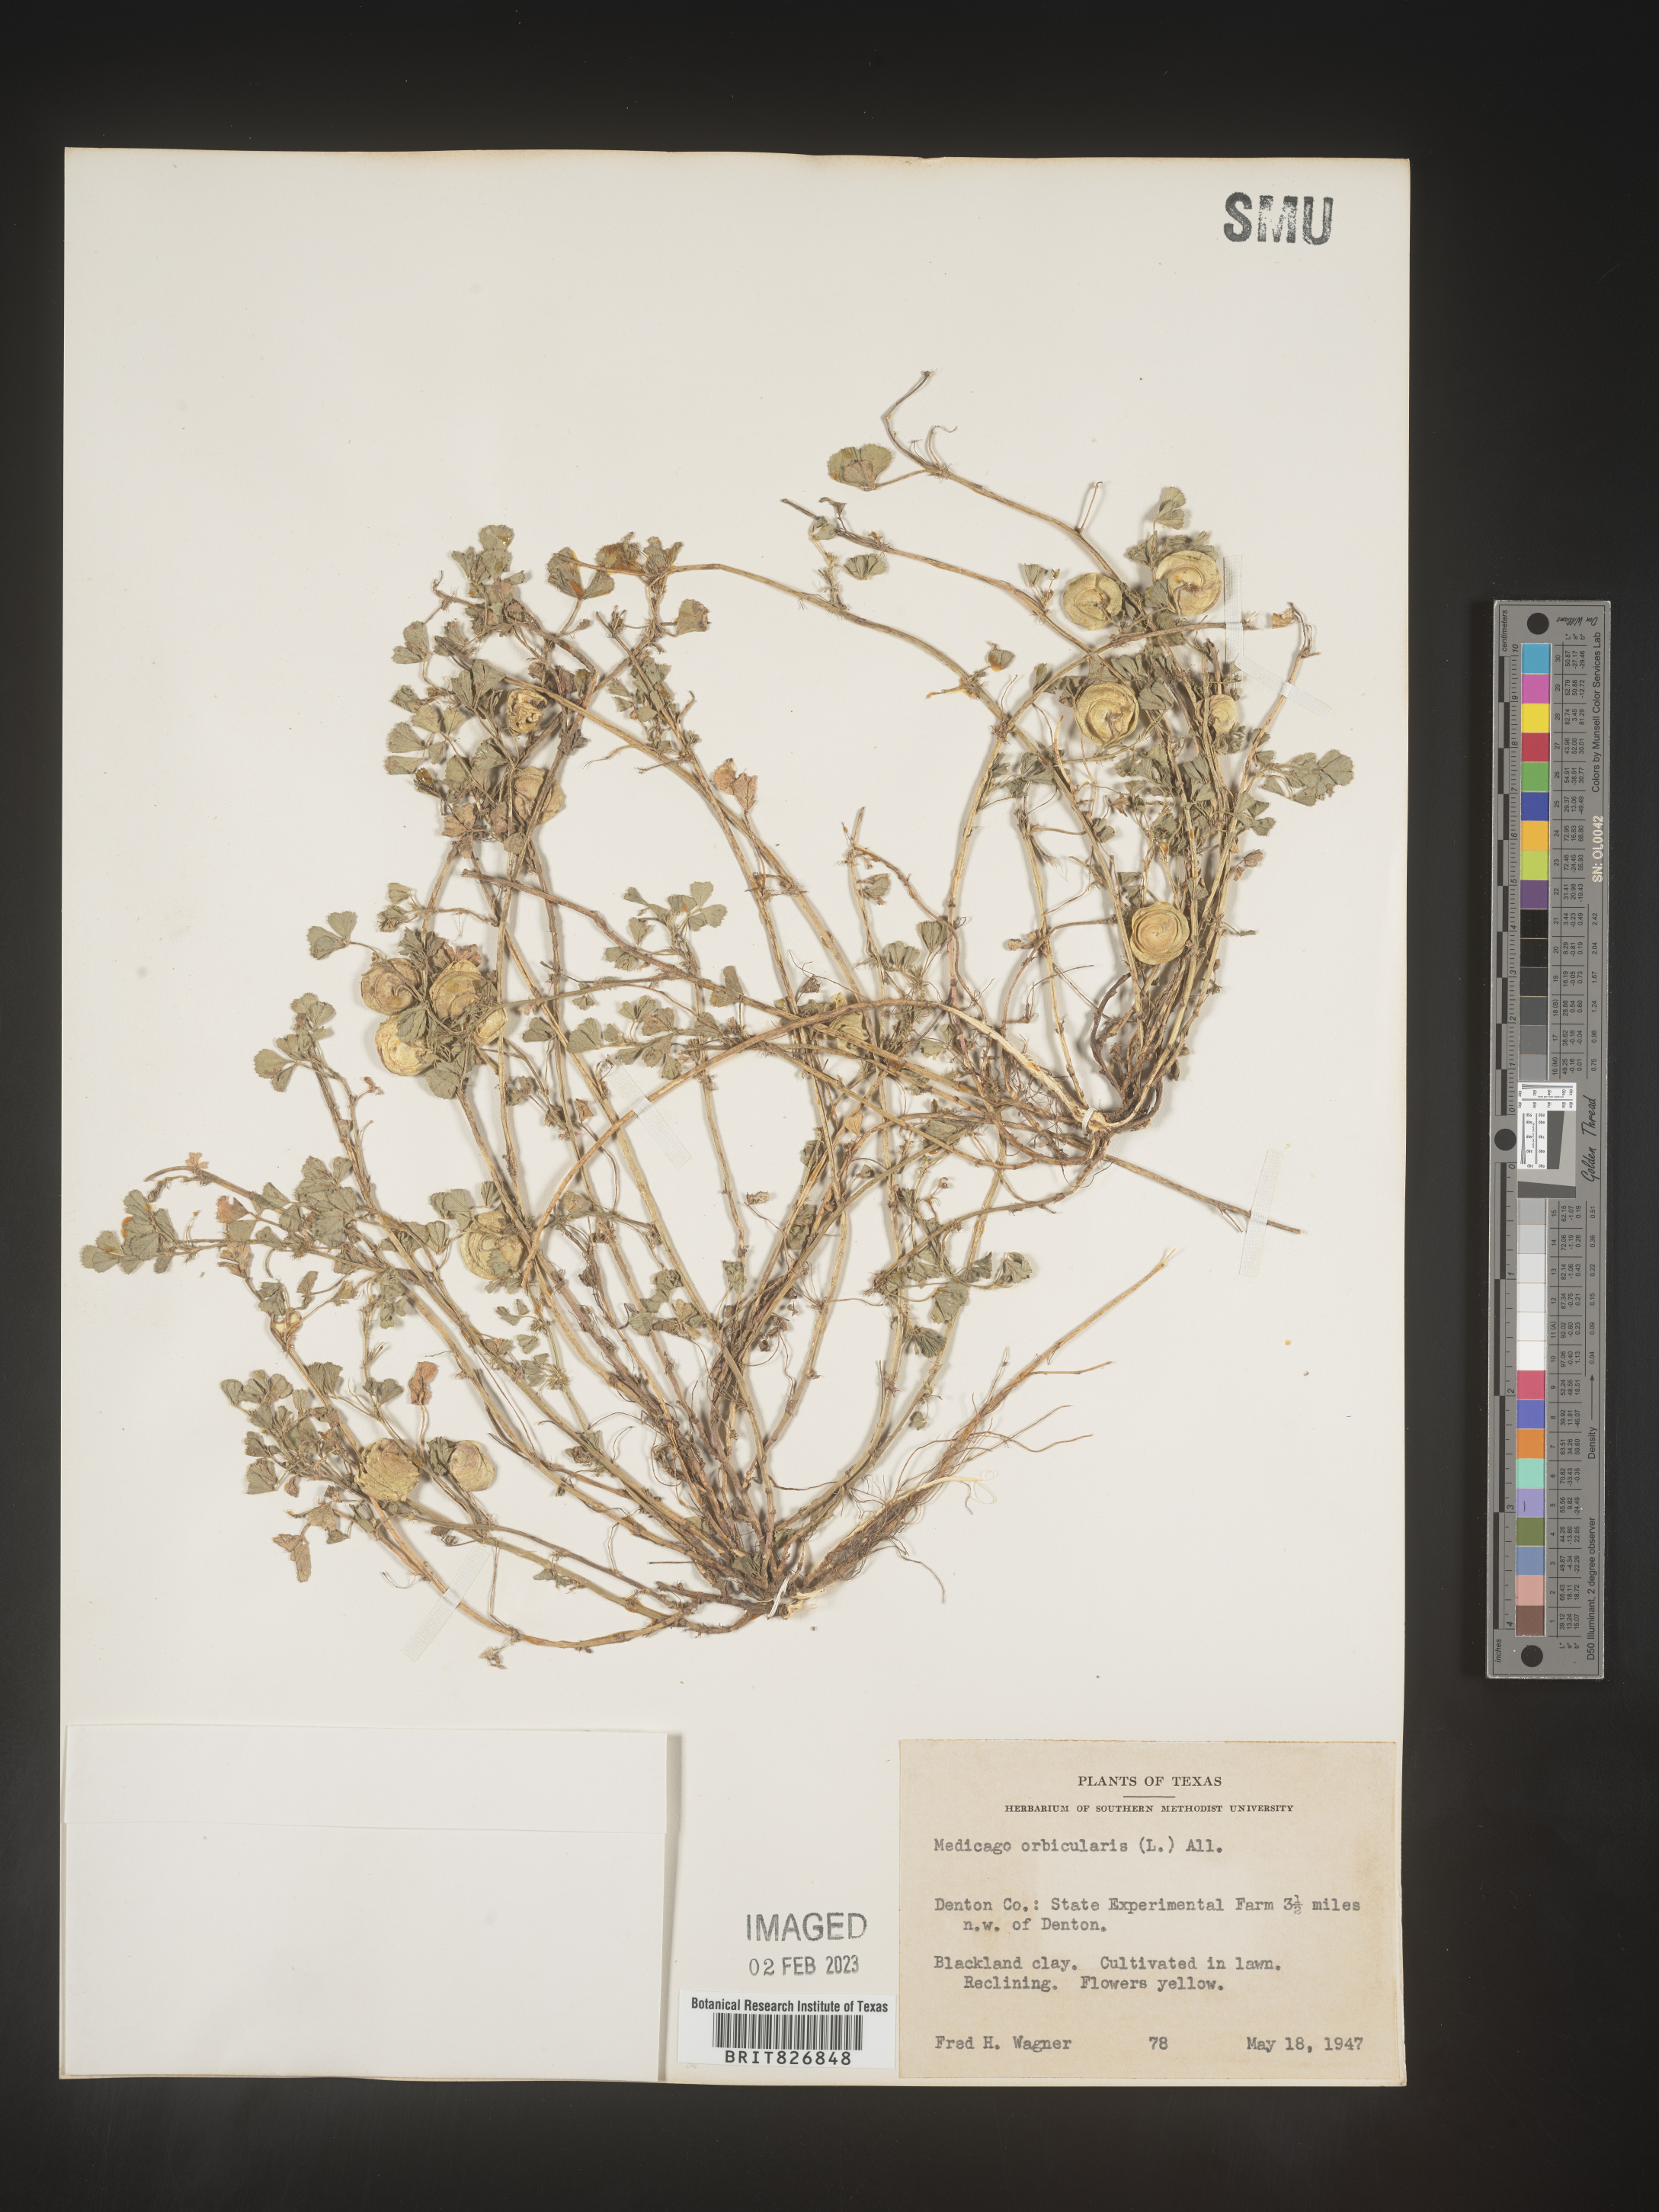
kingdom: Plantae
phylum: Tracheophyta
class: Magnoliopsida
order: Fabales
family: Fabaceae
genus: Medicago
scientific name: Medicago
